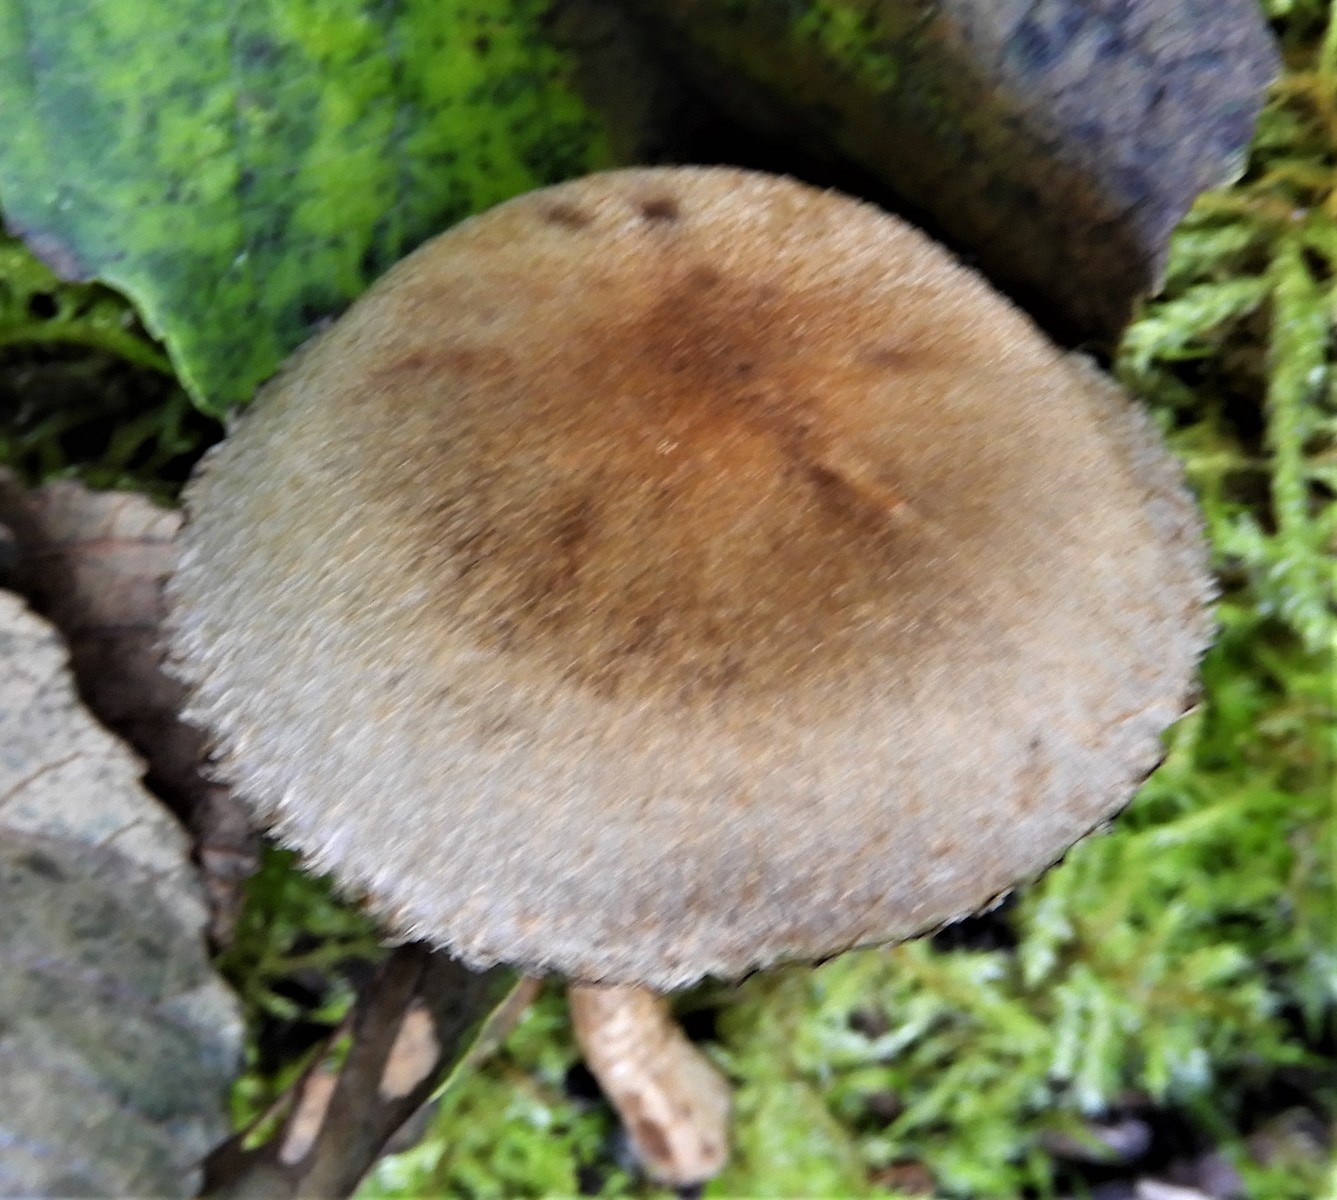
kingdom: Fungi
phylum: Basidiomycota
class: Agaricomycetes
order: Agaricales
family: Psathyrellaceae
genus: Lacrymaria
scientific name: Lacrymaria lacrymabunda
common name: grædende mørkhat
